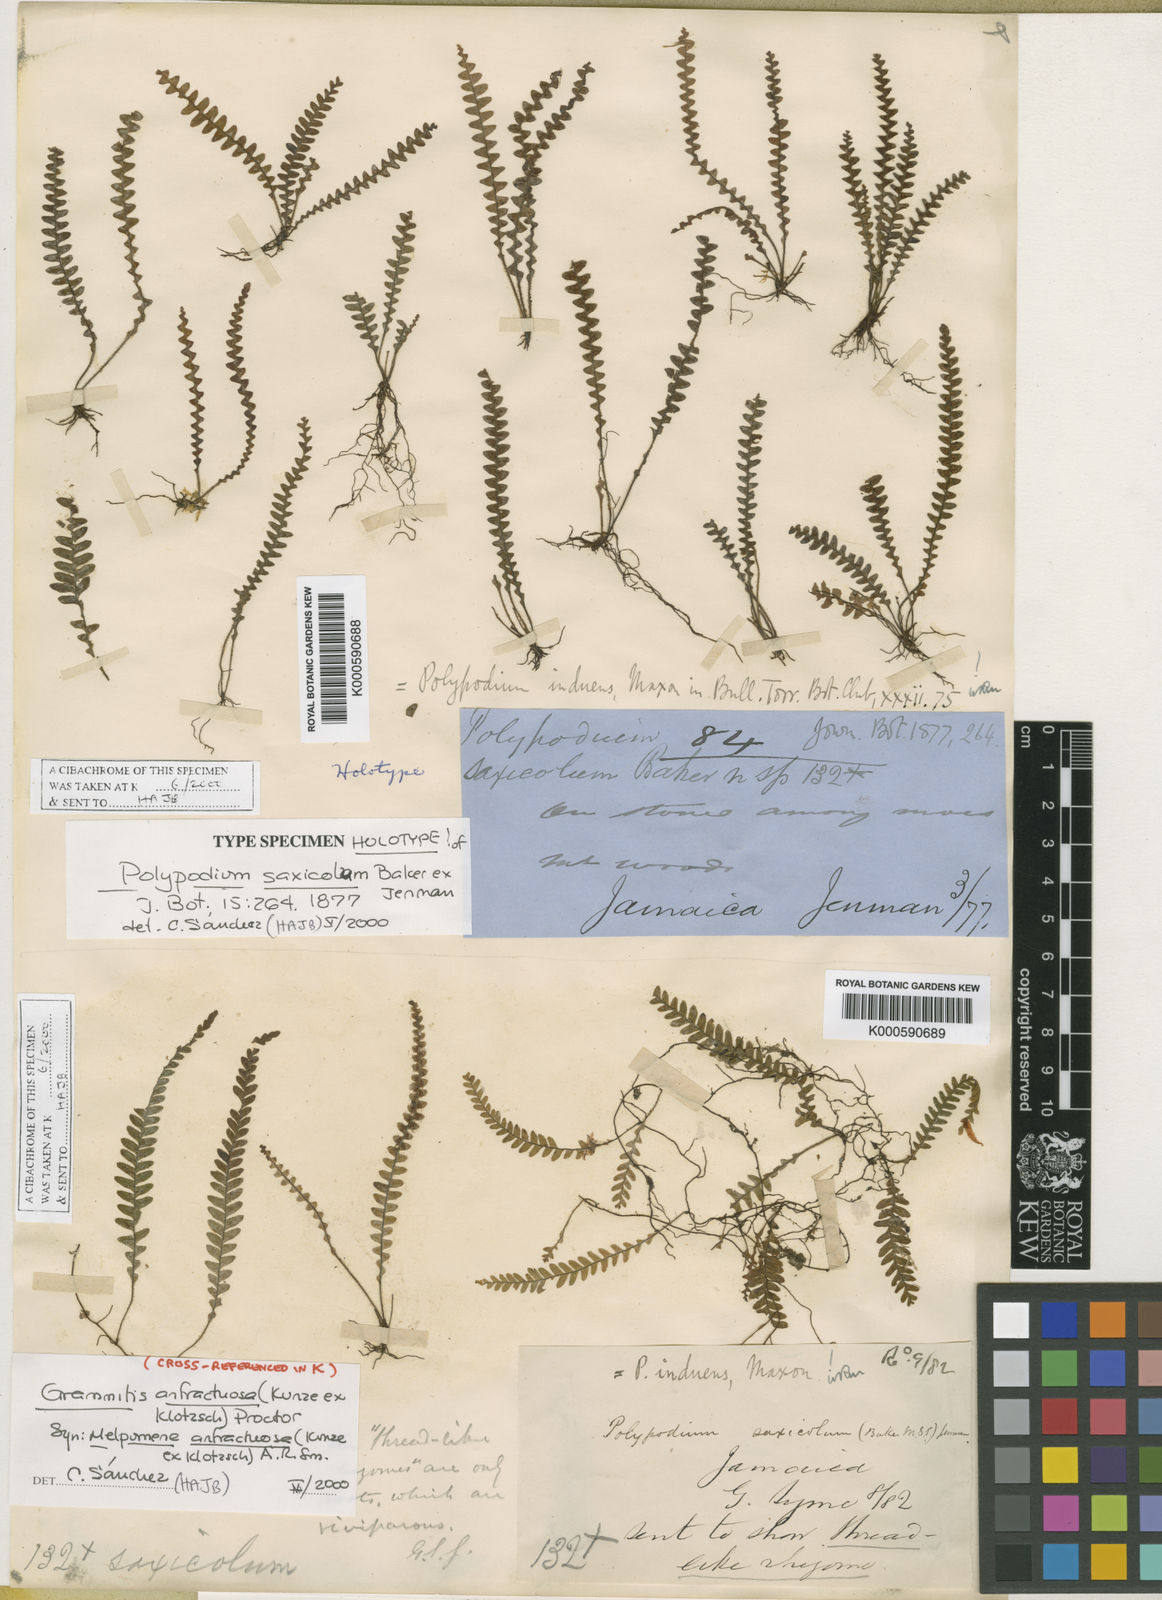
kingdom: Plantae
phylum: Tracheophyta
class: Polypodiopsida
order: Polypodiales
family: Polypodiaceae
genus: Terpsichore
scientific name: Terpsichore
